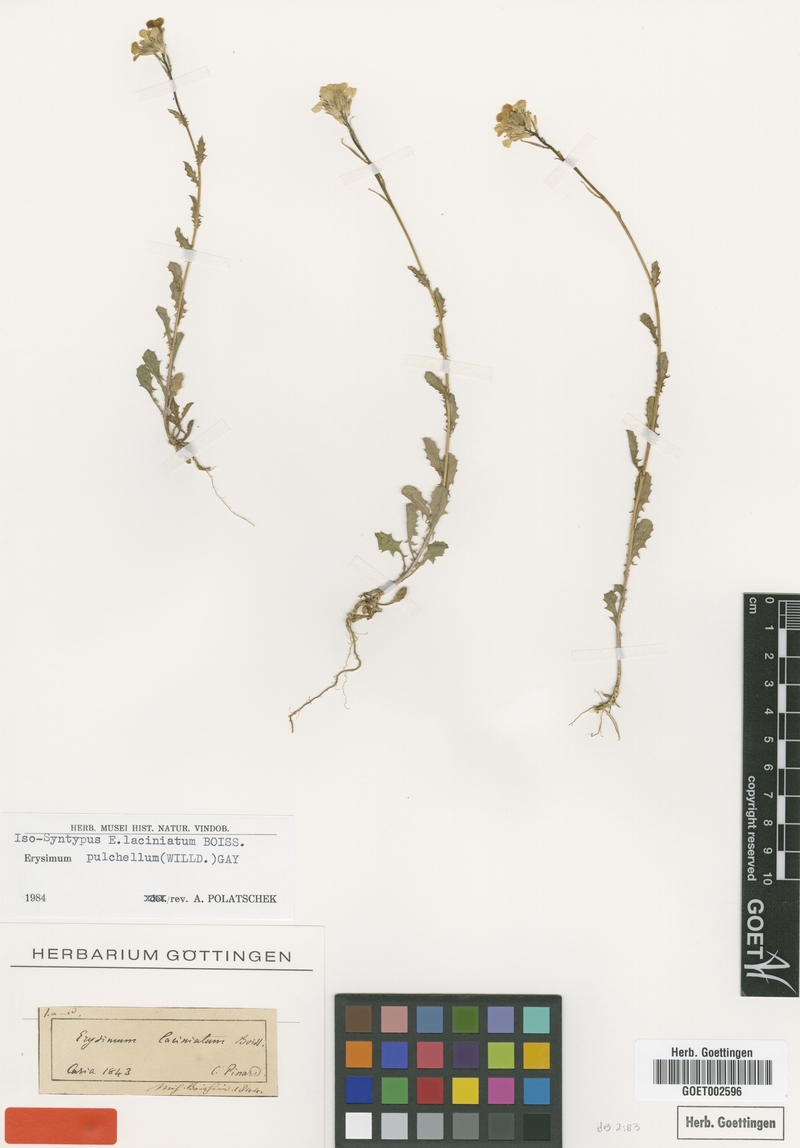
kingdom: Plantae
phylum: Tracheophyta
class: Magnoliopsida
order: Brassicales
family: Brassicaceae
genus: Erysimum
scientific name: Erysimum pulchellum
